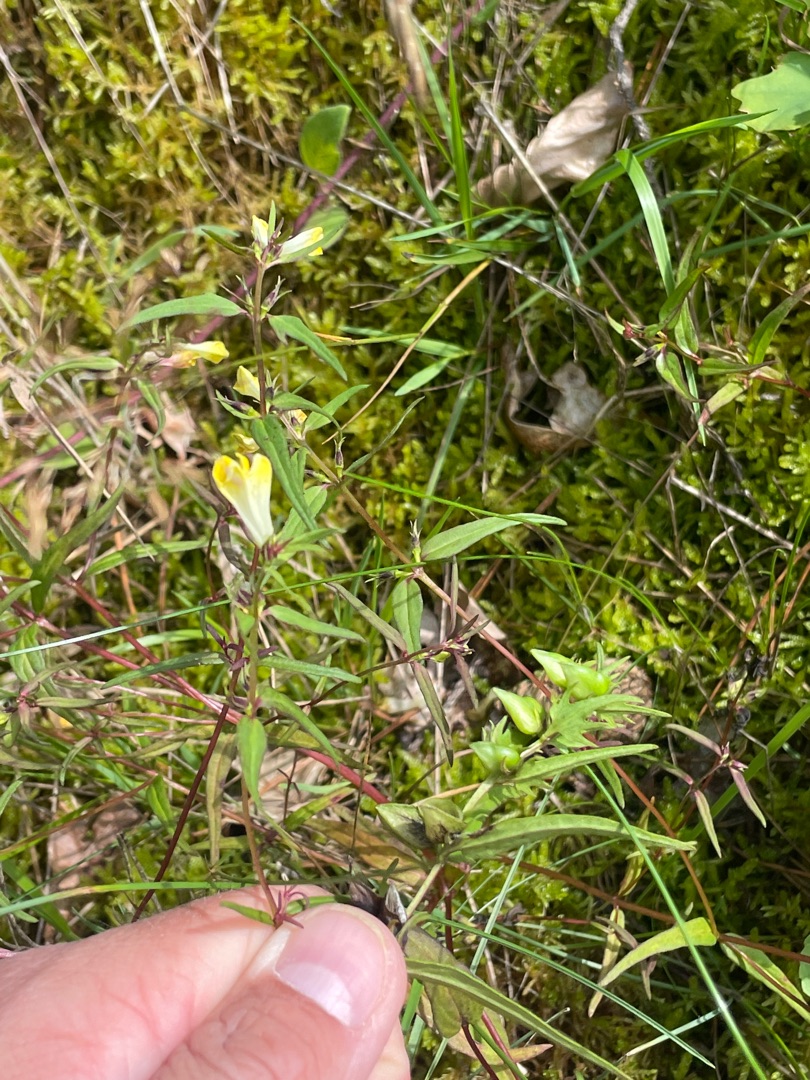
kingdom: Plantae
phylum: Tracheophyta
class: Magnoliopsida
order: Lamiales
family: Orobanchaceae
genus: Melampyrum
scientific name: Melampyrum pratense
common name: Almindelig kohvede
